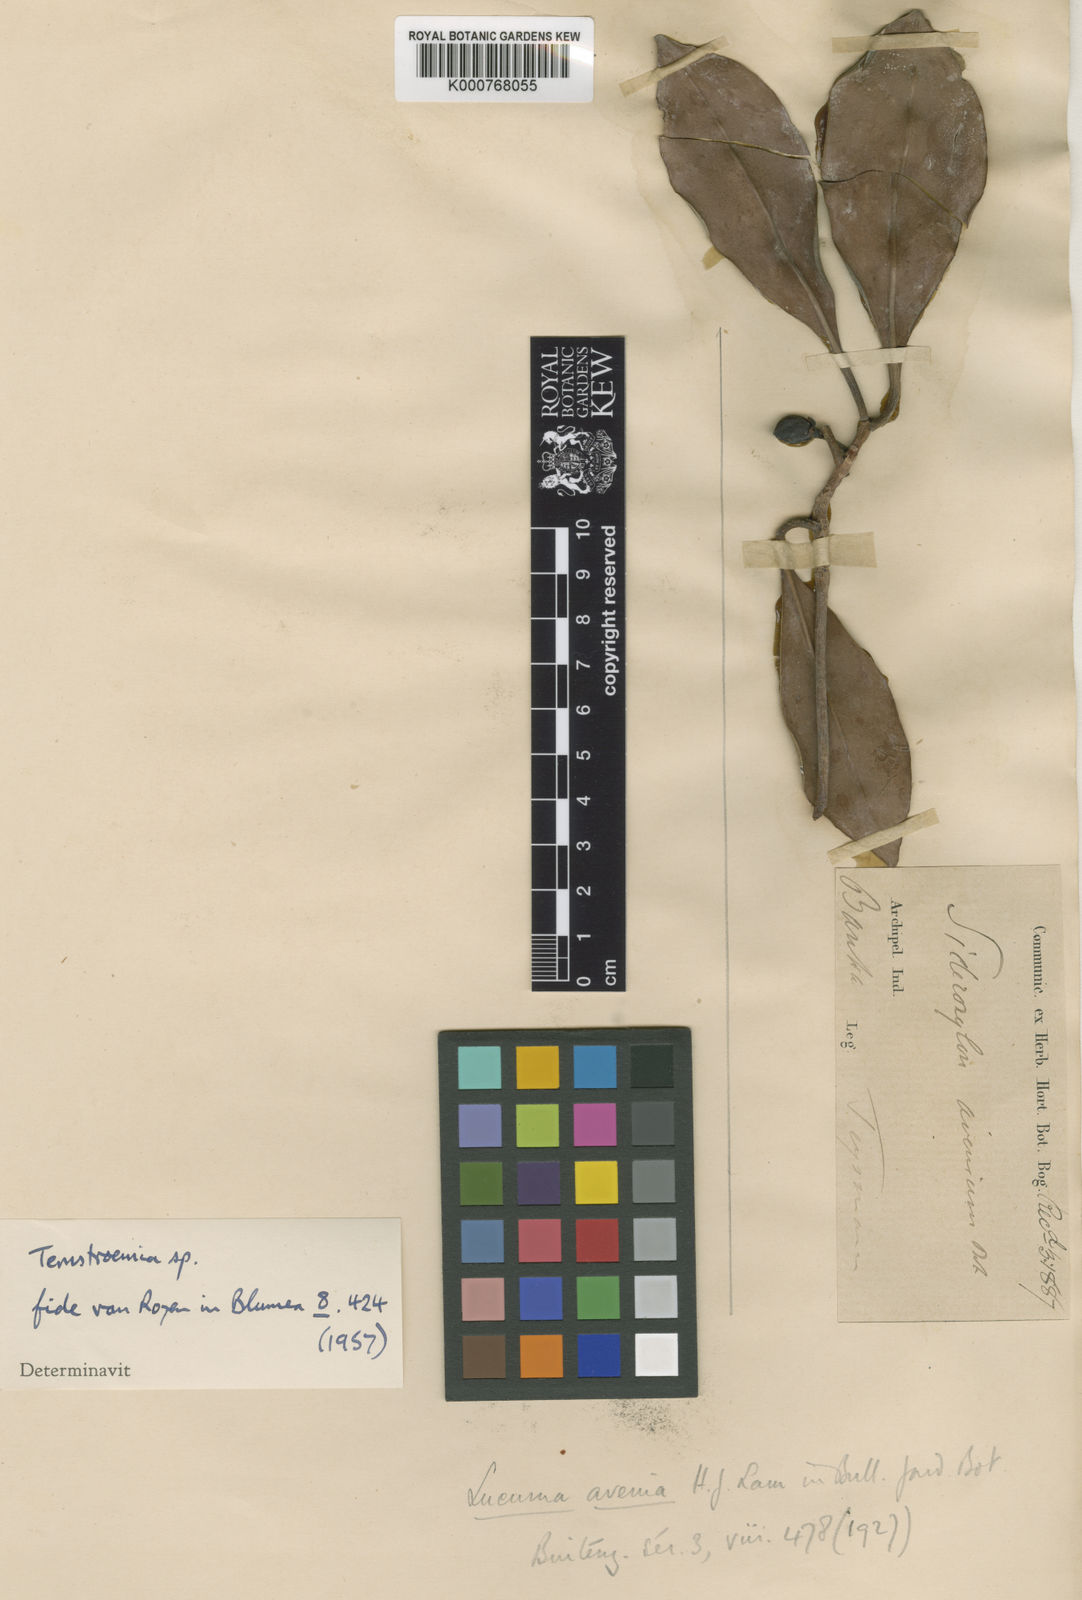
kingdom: Plantae
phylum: Tracheophyta
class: Magnoliopsida
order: Ericales
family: Pentaphylacaceae
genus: Ternstroemia
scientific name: Ternstroemia
